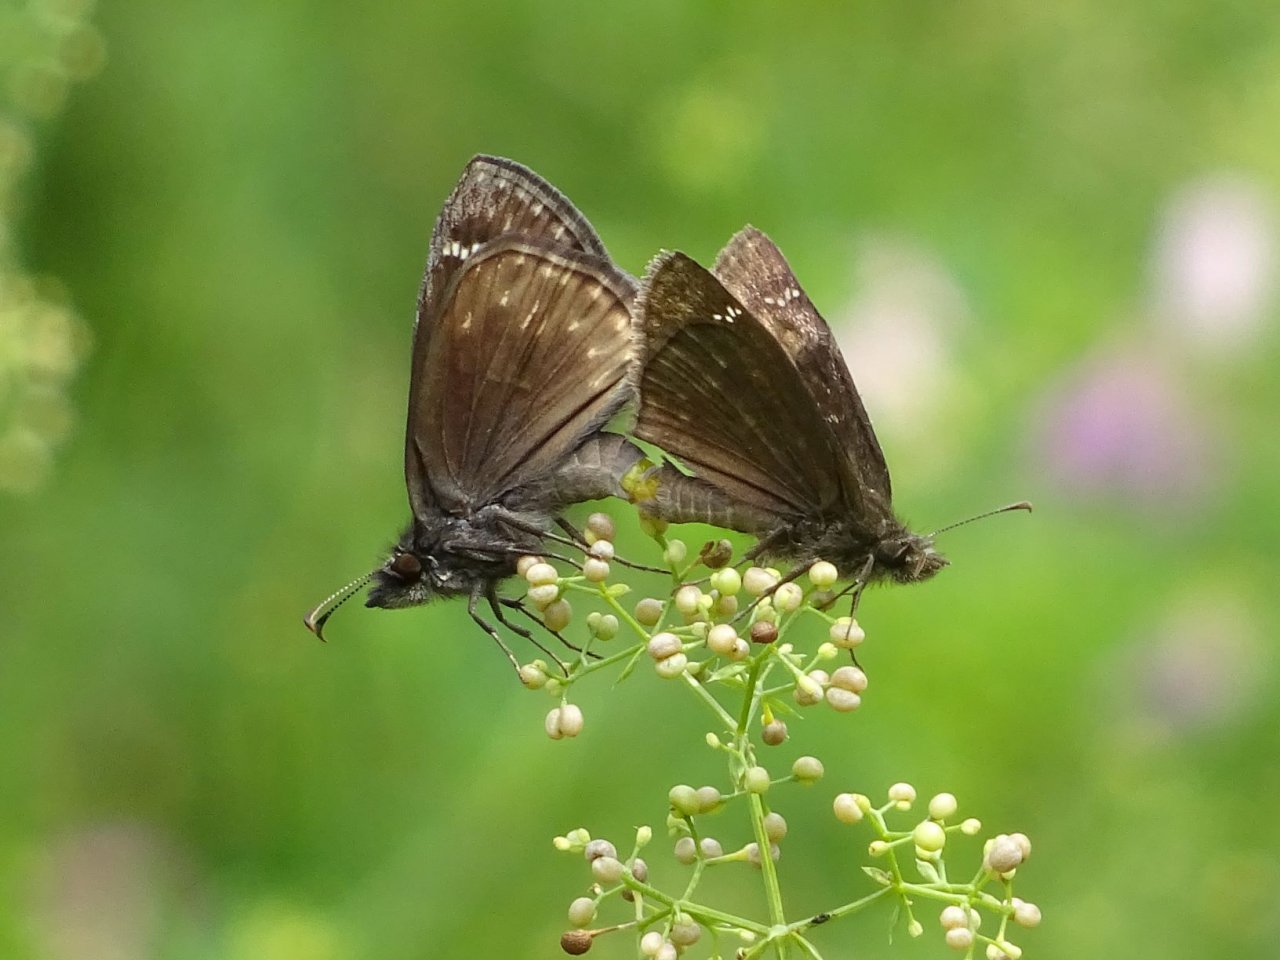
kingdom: Animalia
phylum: Arthropoda
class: Insecta
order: Lepidoptera
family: Hesperiidae
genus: Gesta
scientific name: Gesta
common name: Wild Indigo Duskywing
